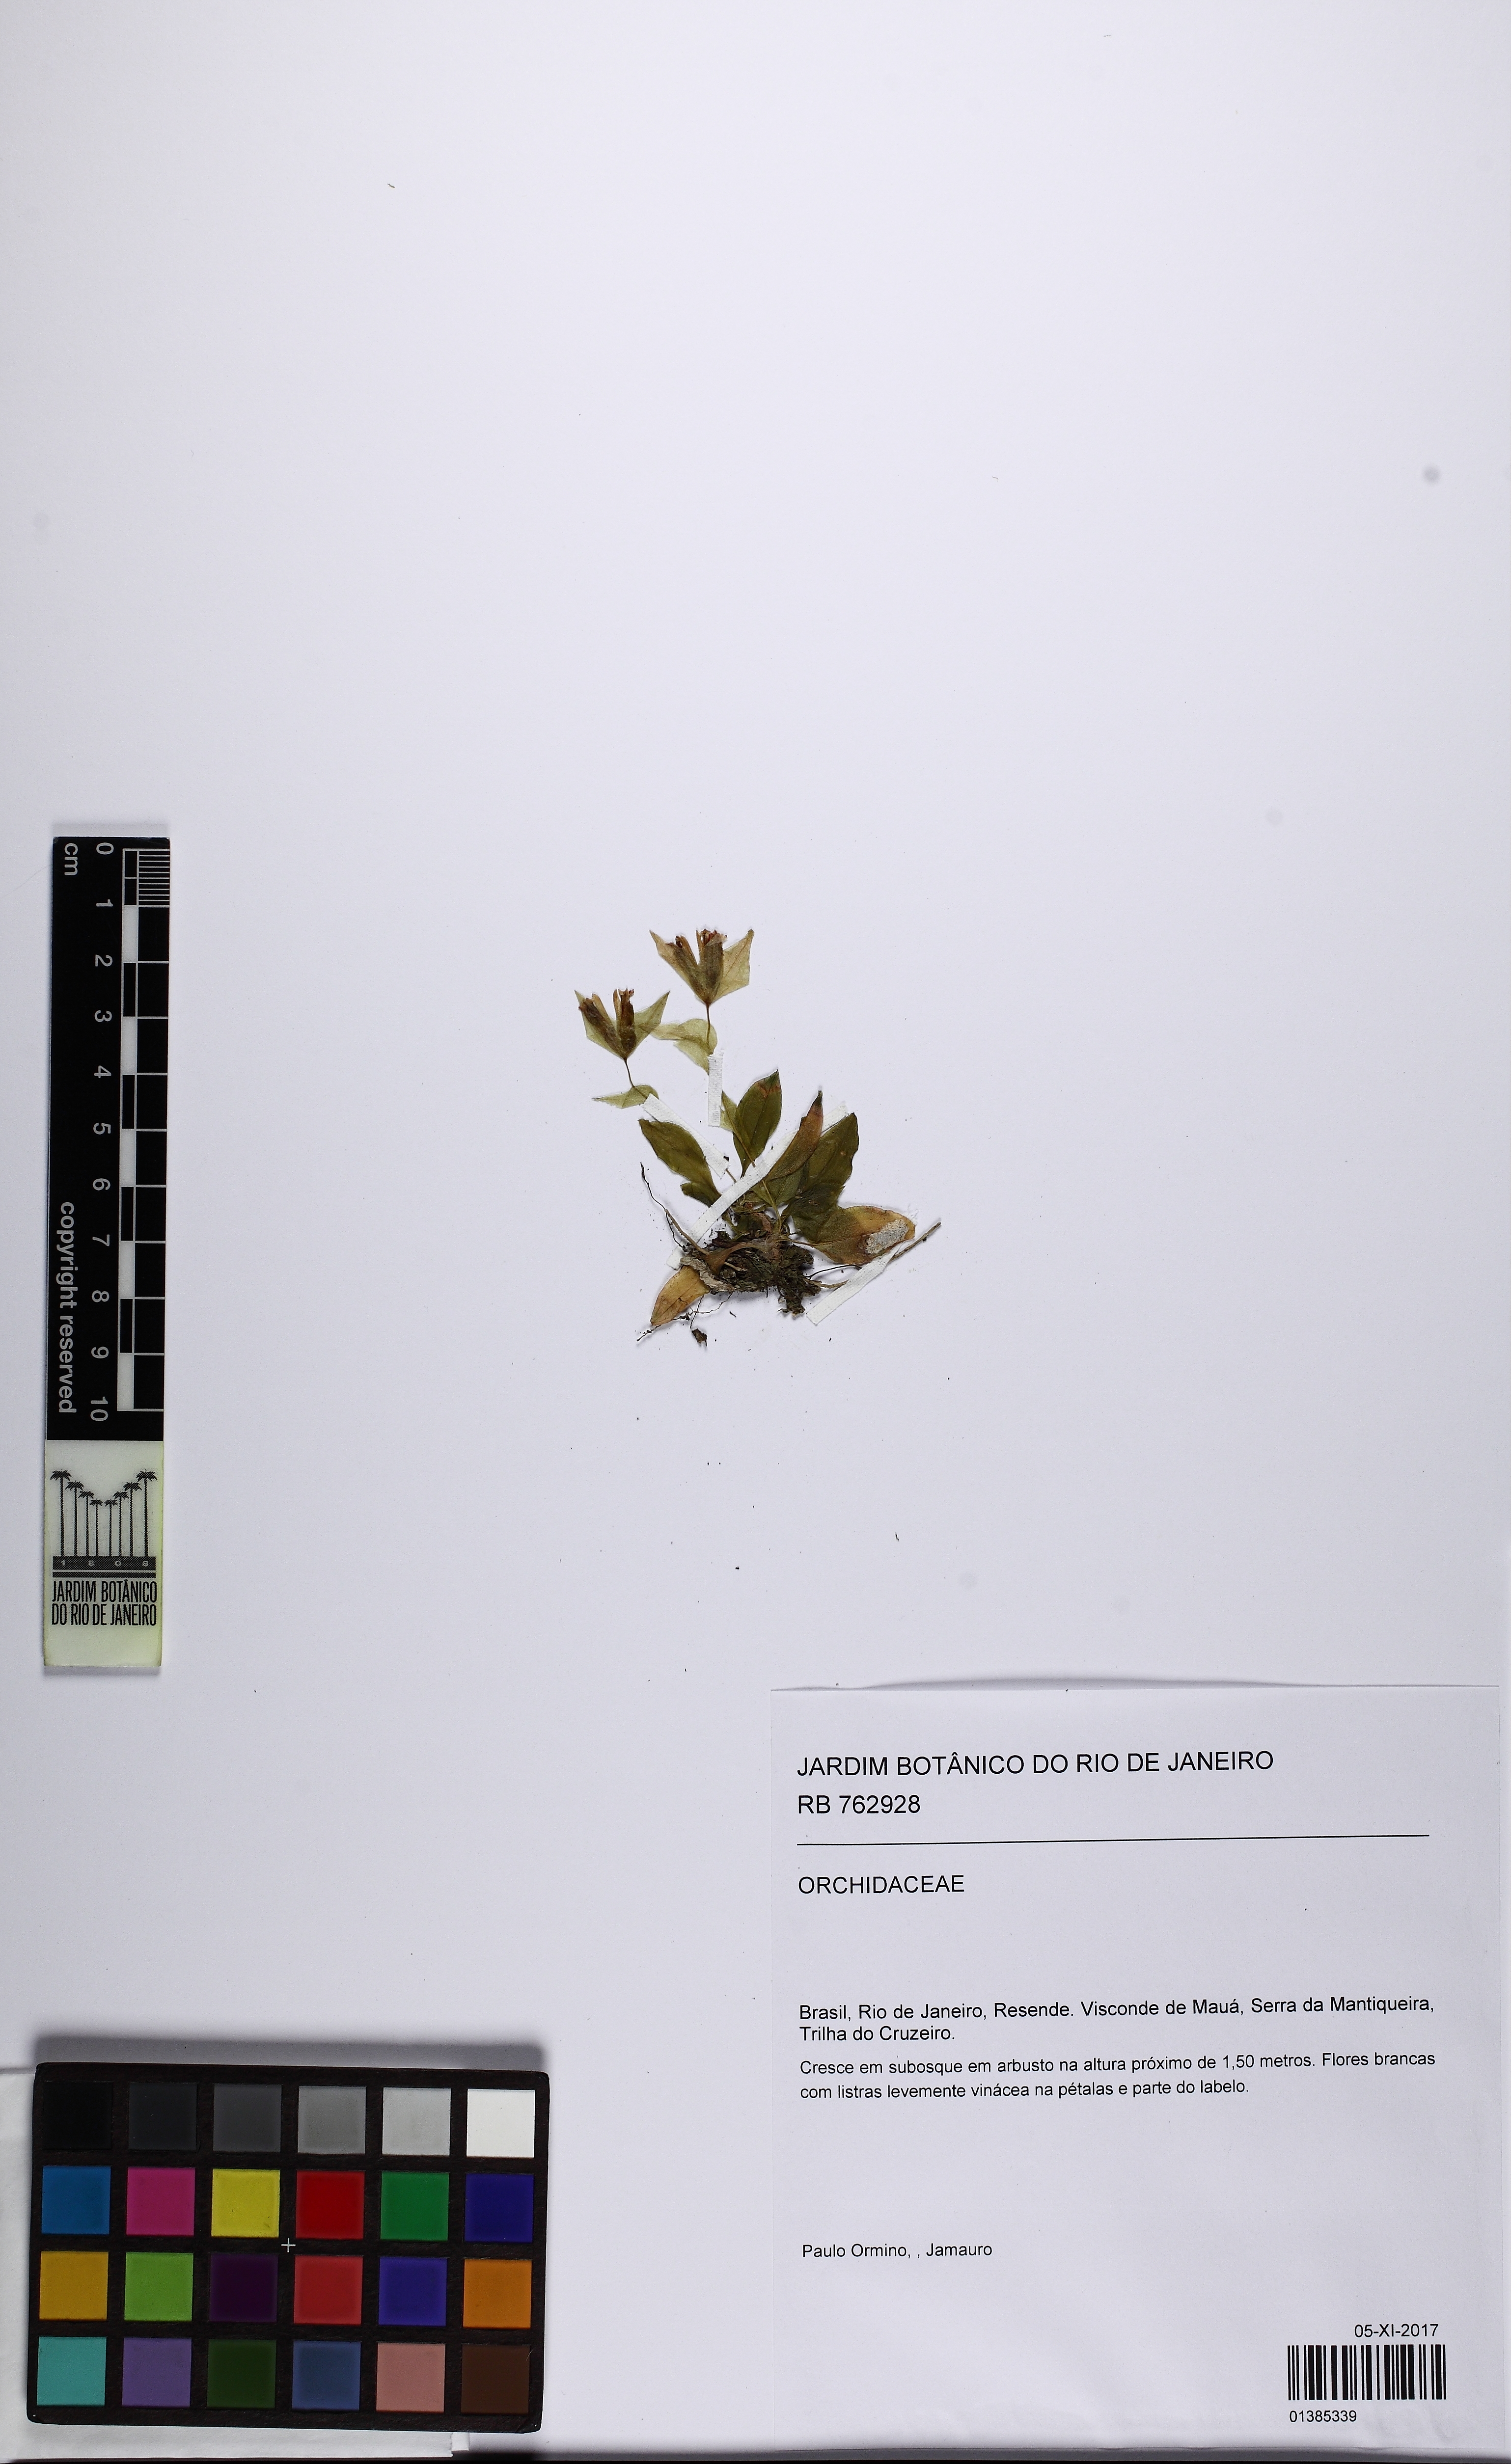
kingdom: Plantae
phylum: Tracheophyta
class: Liliopsida
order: Asparagales
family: Orchidaceae
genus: Eurystyles
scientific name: Eurystyles
